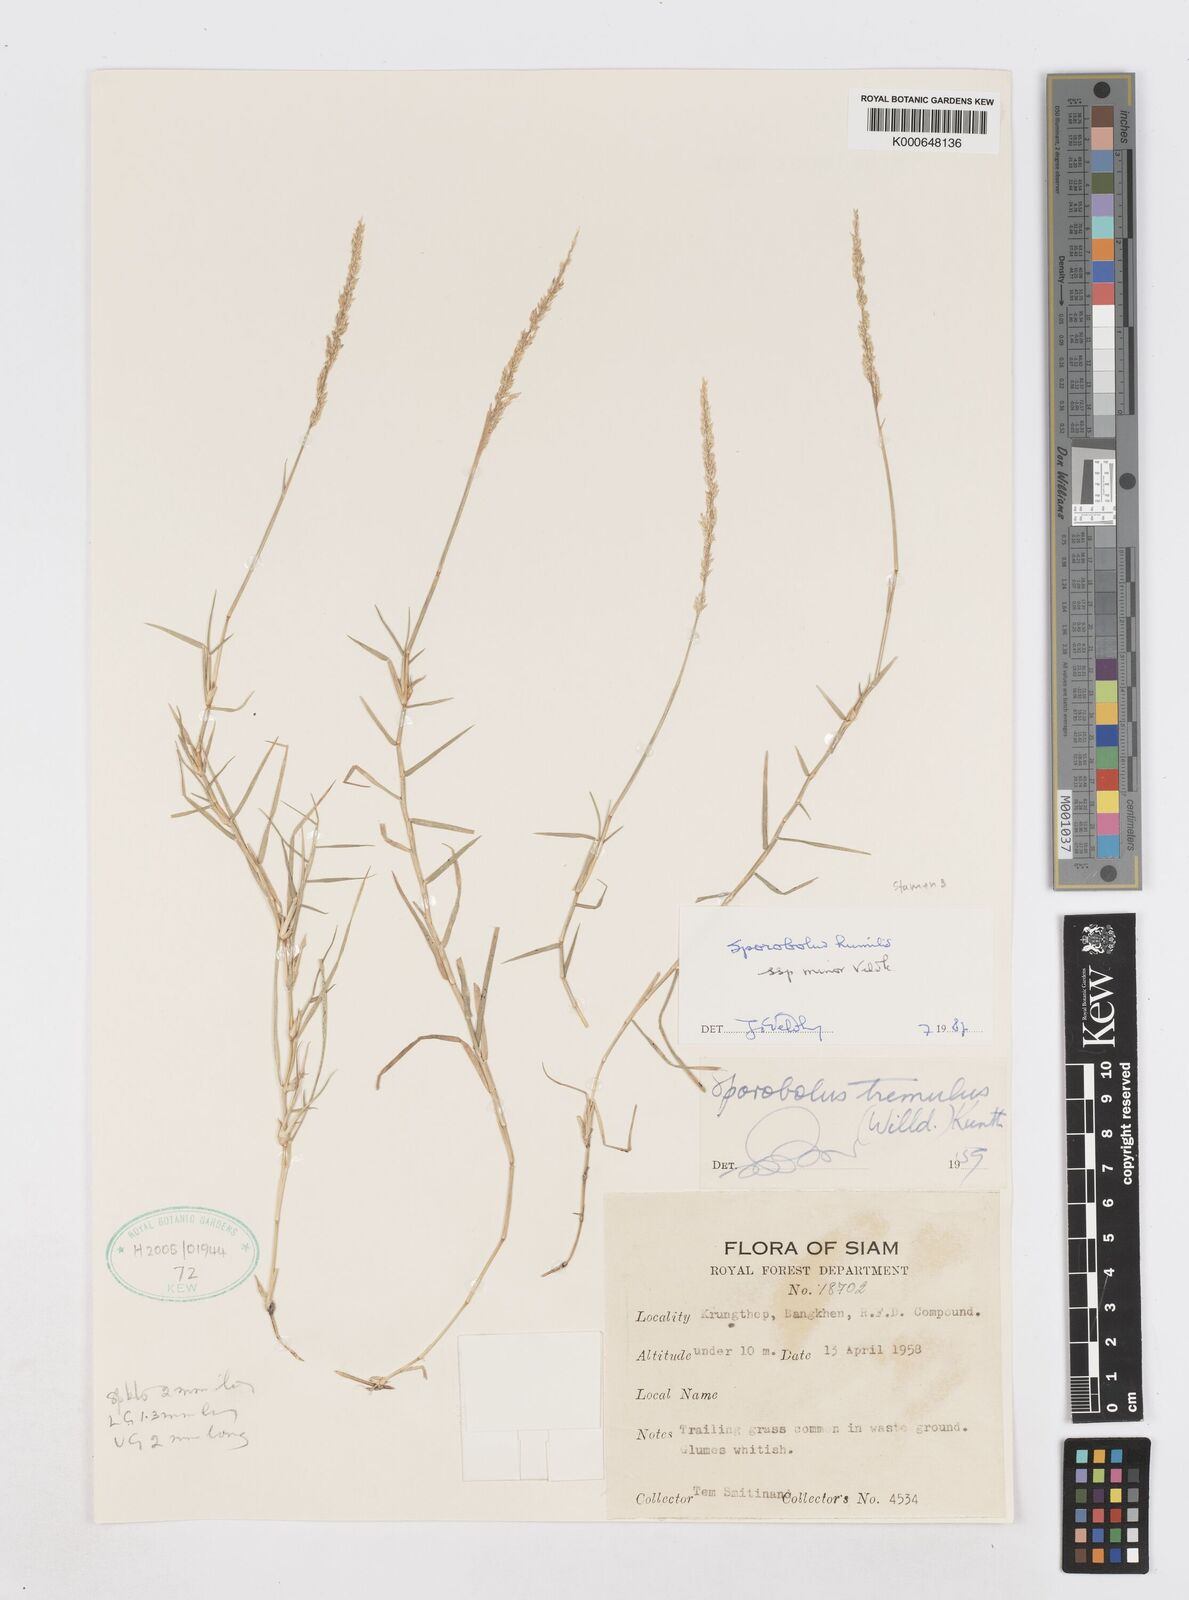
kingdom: Plantae
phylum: Tracheophyta
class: Liliopsida
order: Poales
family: Poaceae
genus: Sporobolus
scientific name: Sporobolus harmandii
